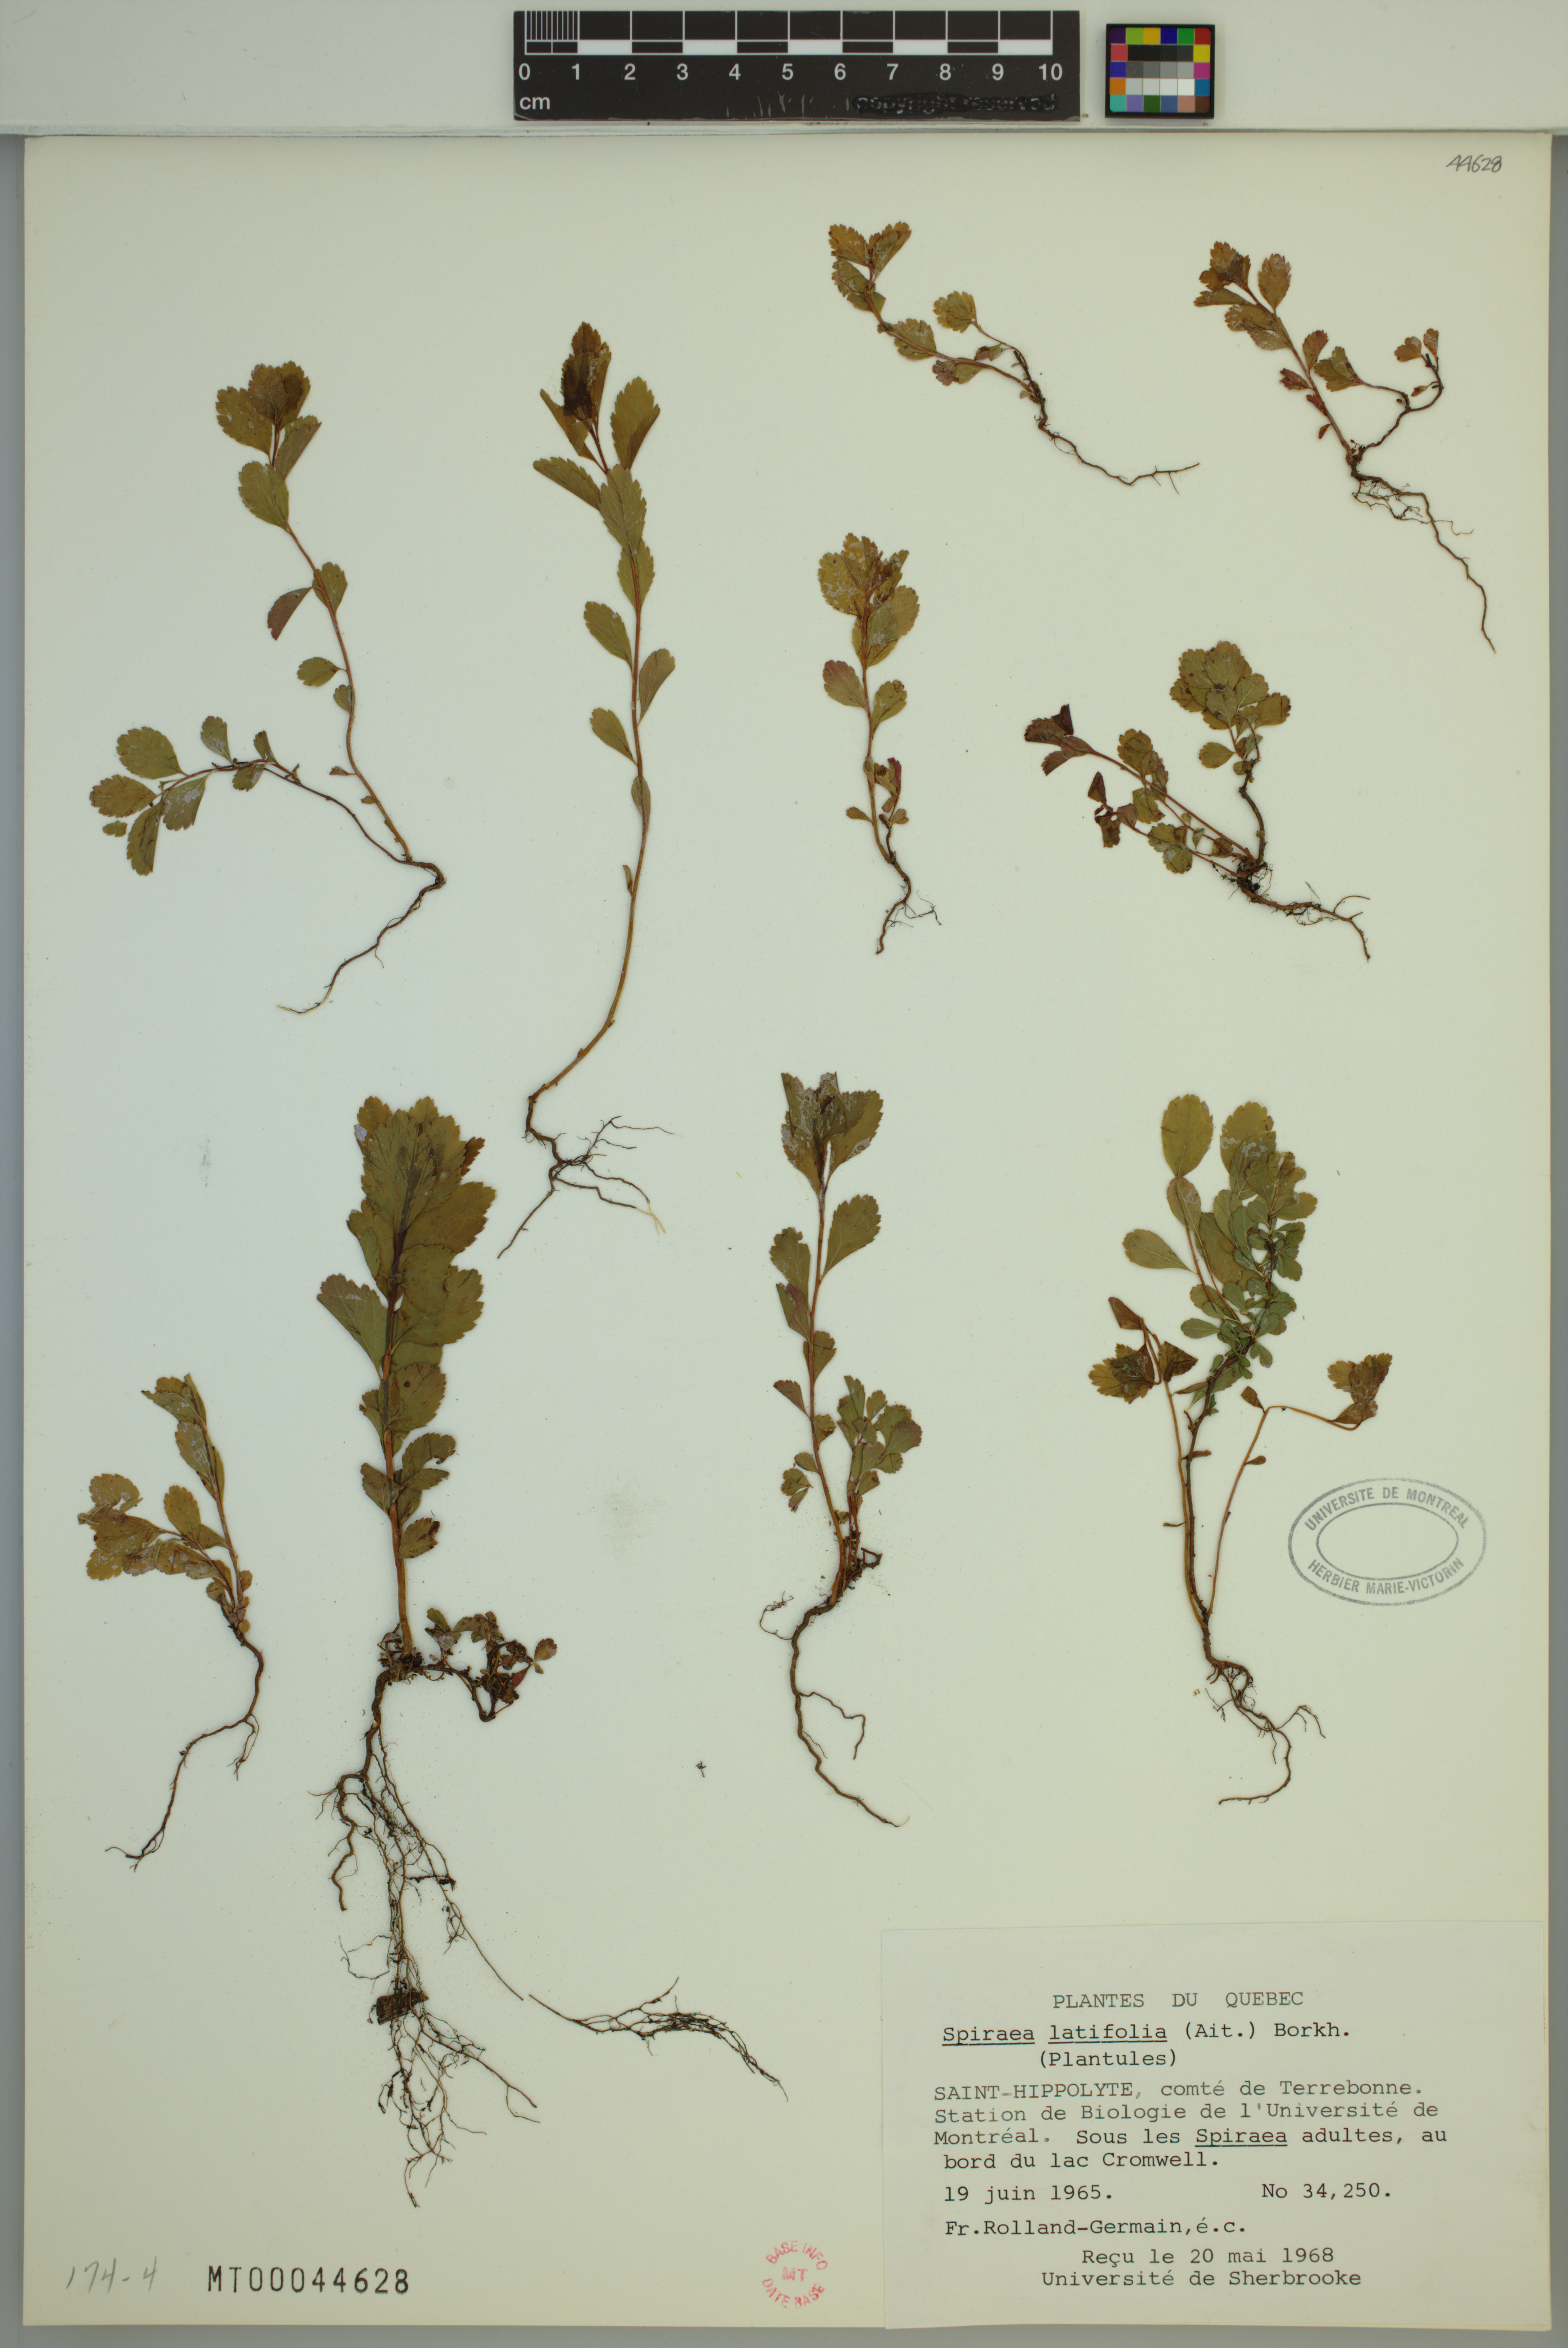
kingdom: Plantae
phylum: Tracheophyta
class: Magnoliopsida
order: Rosales
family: Rosaceae
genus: Spiraea
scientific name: Spiraea alba
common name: Pale bridewort
